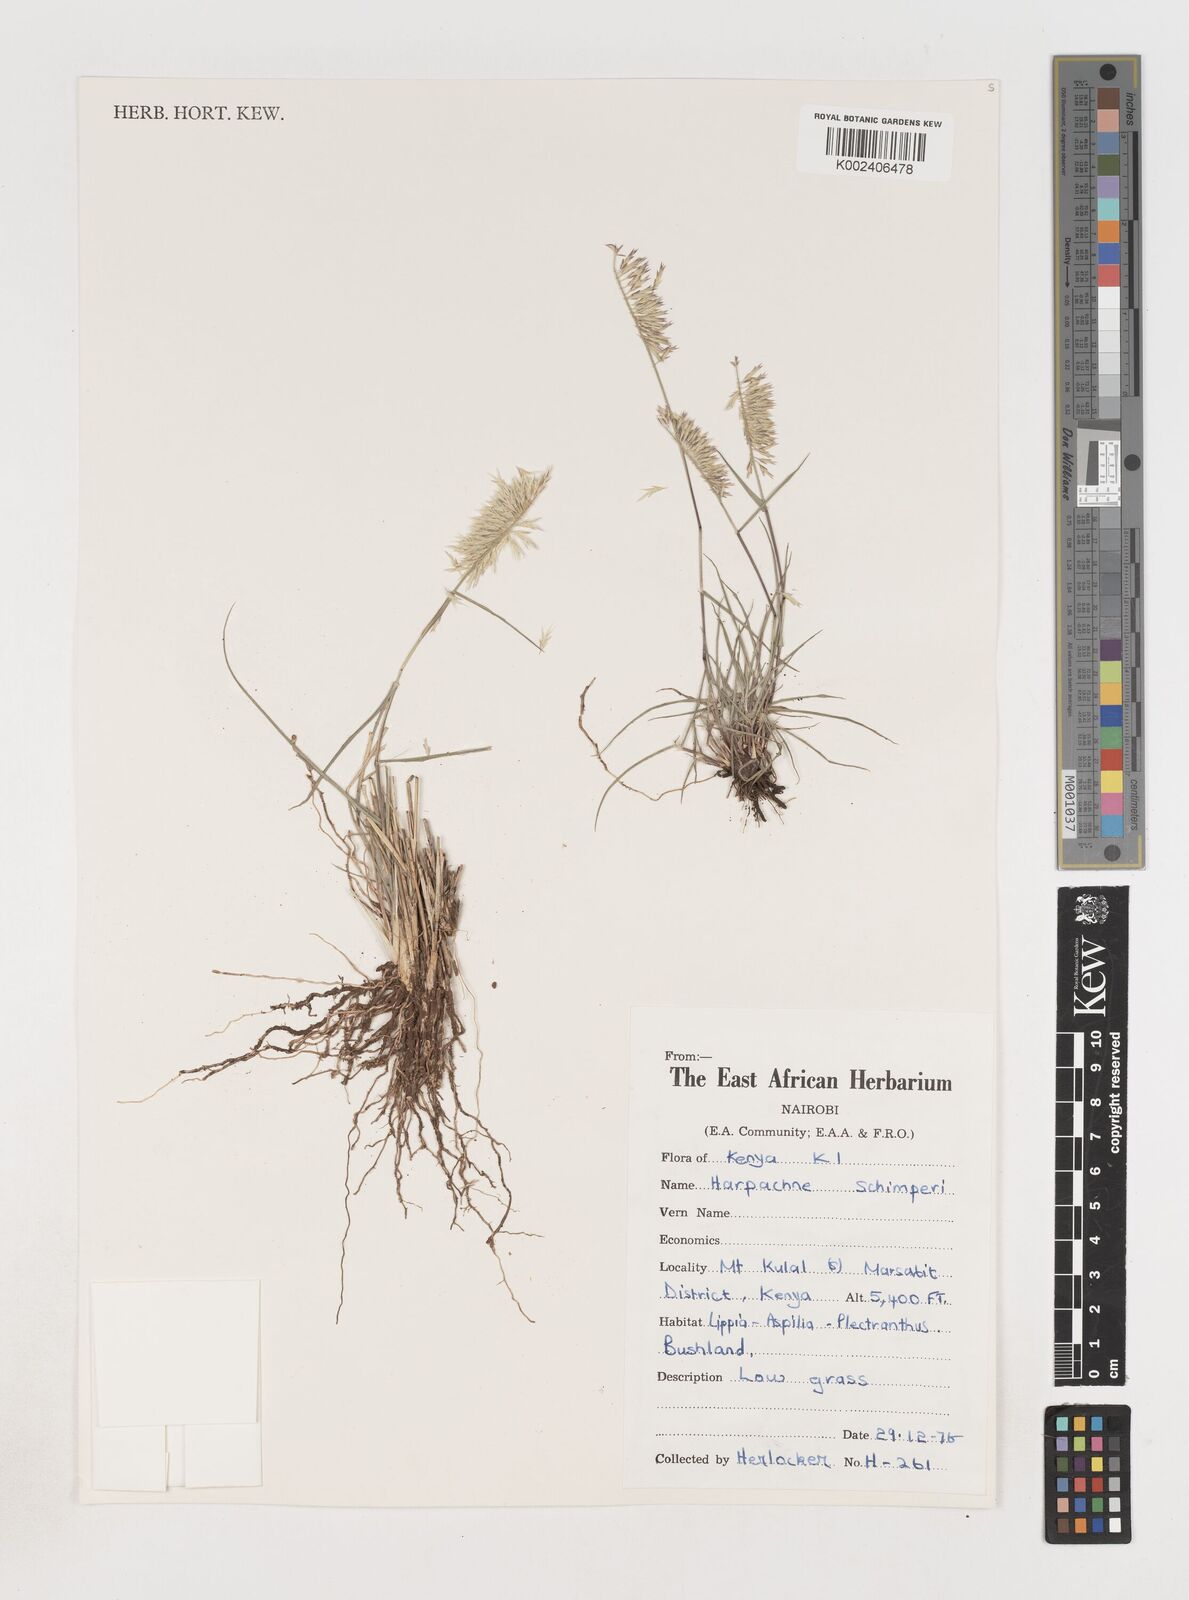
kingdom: Plantae
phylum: Tracheophyta
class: Liliopsida
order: Poales
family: Poaceae
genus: Harpachne
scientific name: Harpachne schimperi
